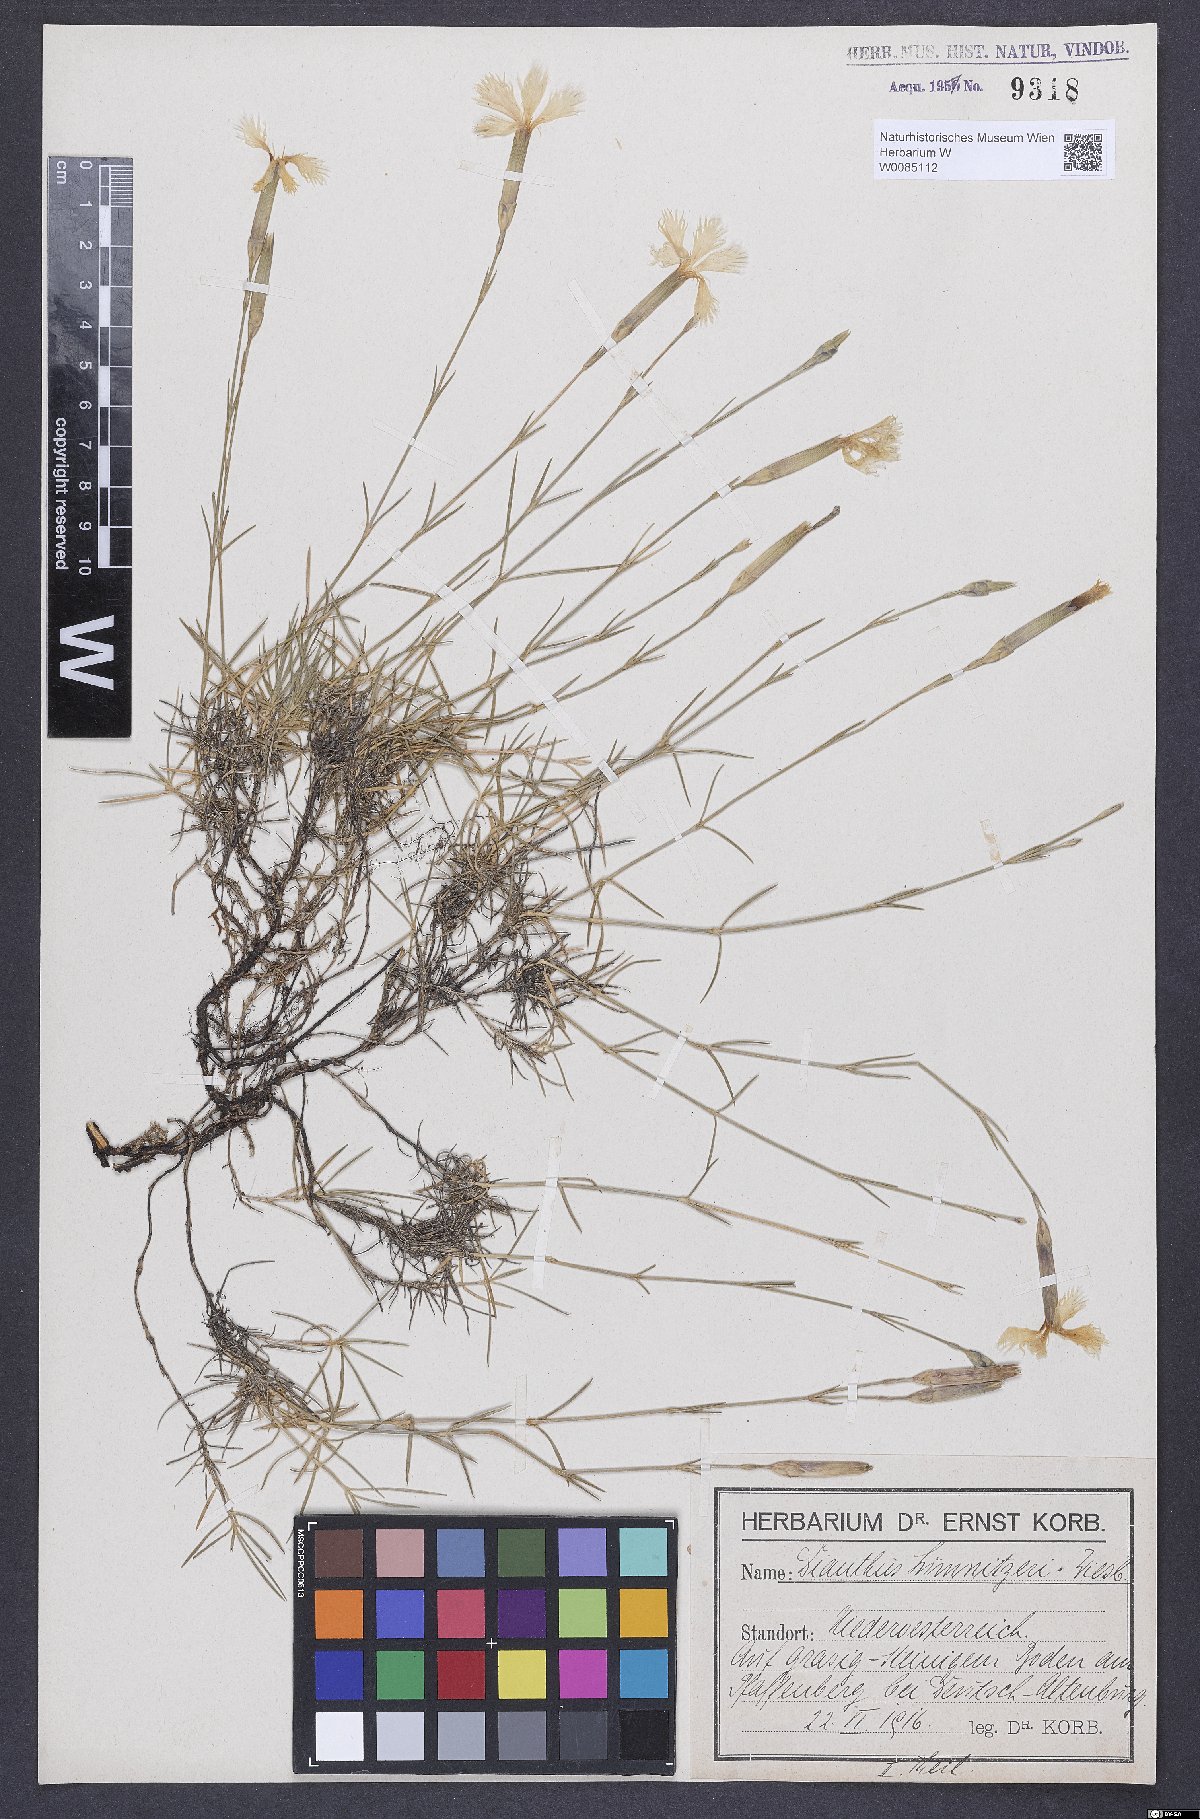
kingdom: Plantae
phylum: Tracheophyta
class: Magnoliopsida
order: Caryophyllales
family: Caryophyllaceae
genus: Dianthus
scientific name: Dianthus praecox
